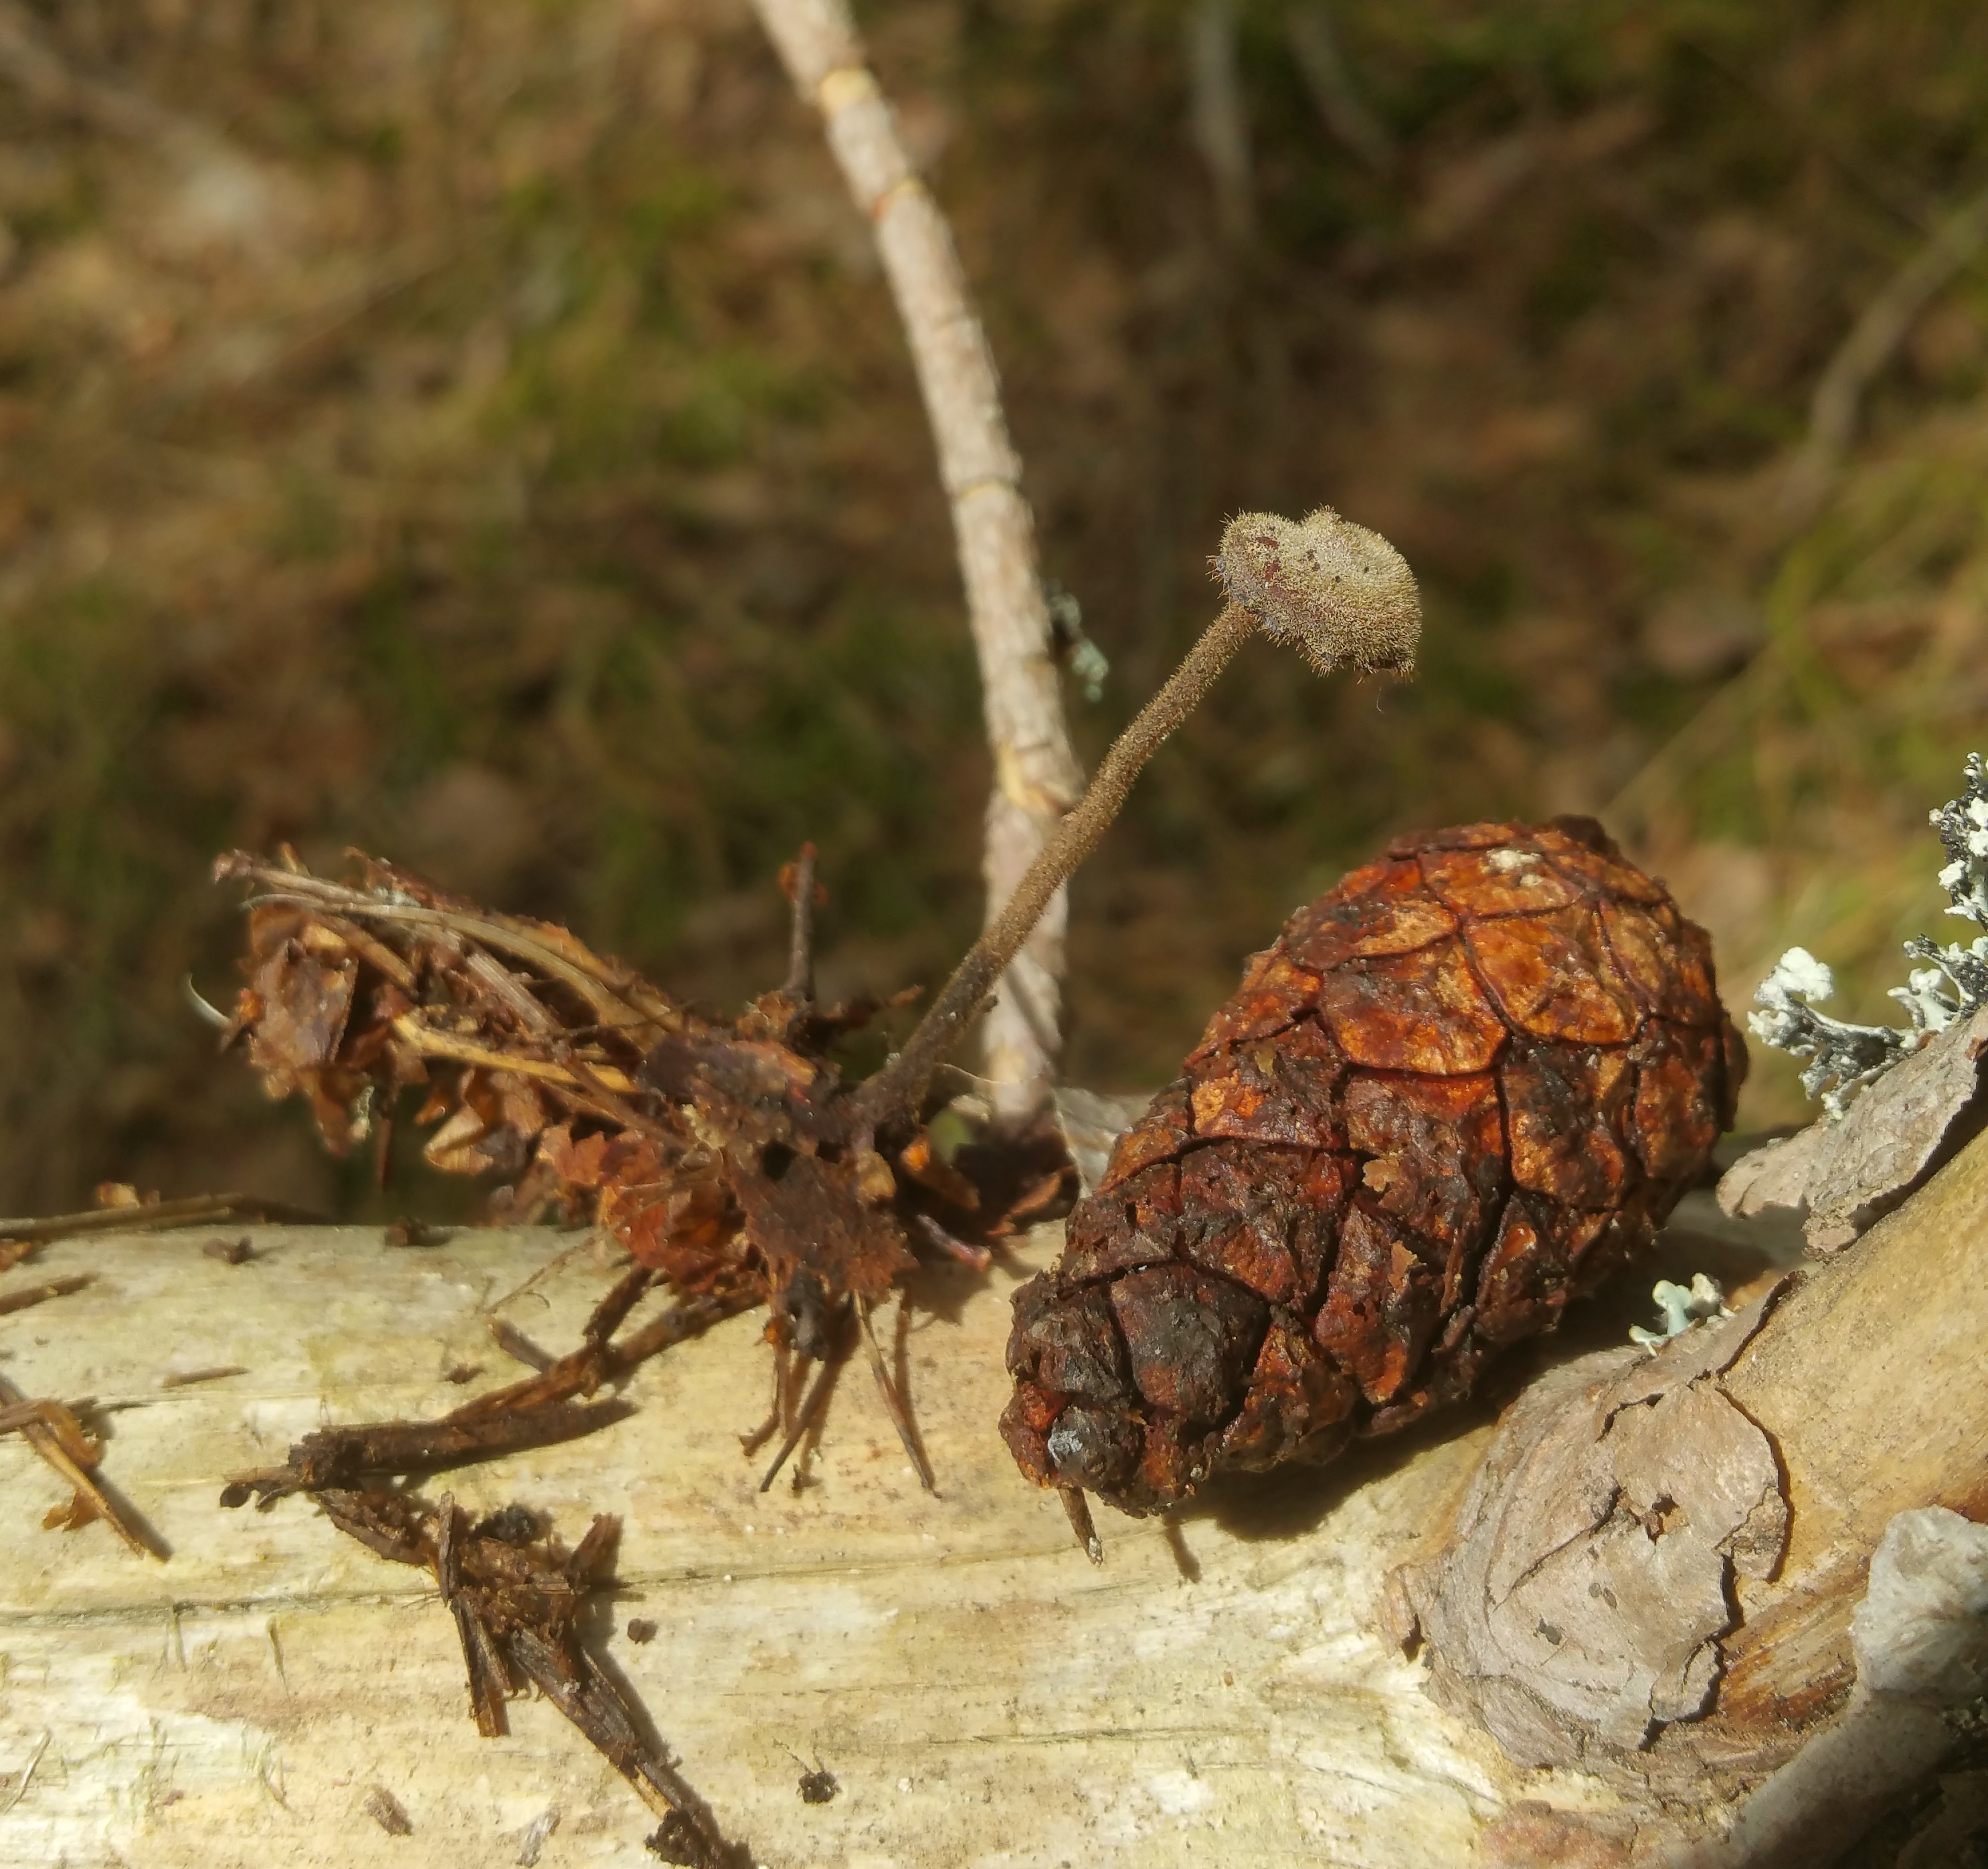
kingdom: Fungi
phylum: Basidiomycota
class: Agaricomycetes
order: Russulales
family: Auriscalpiaceae
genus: Auriscalpium
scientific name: Auriscalpium vulgare
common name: Earpick fungus
